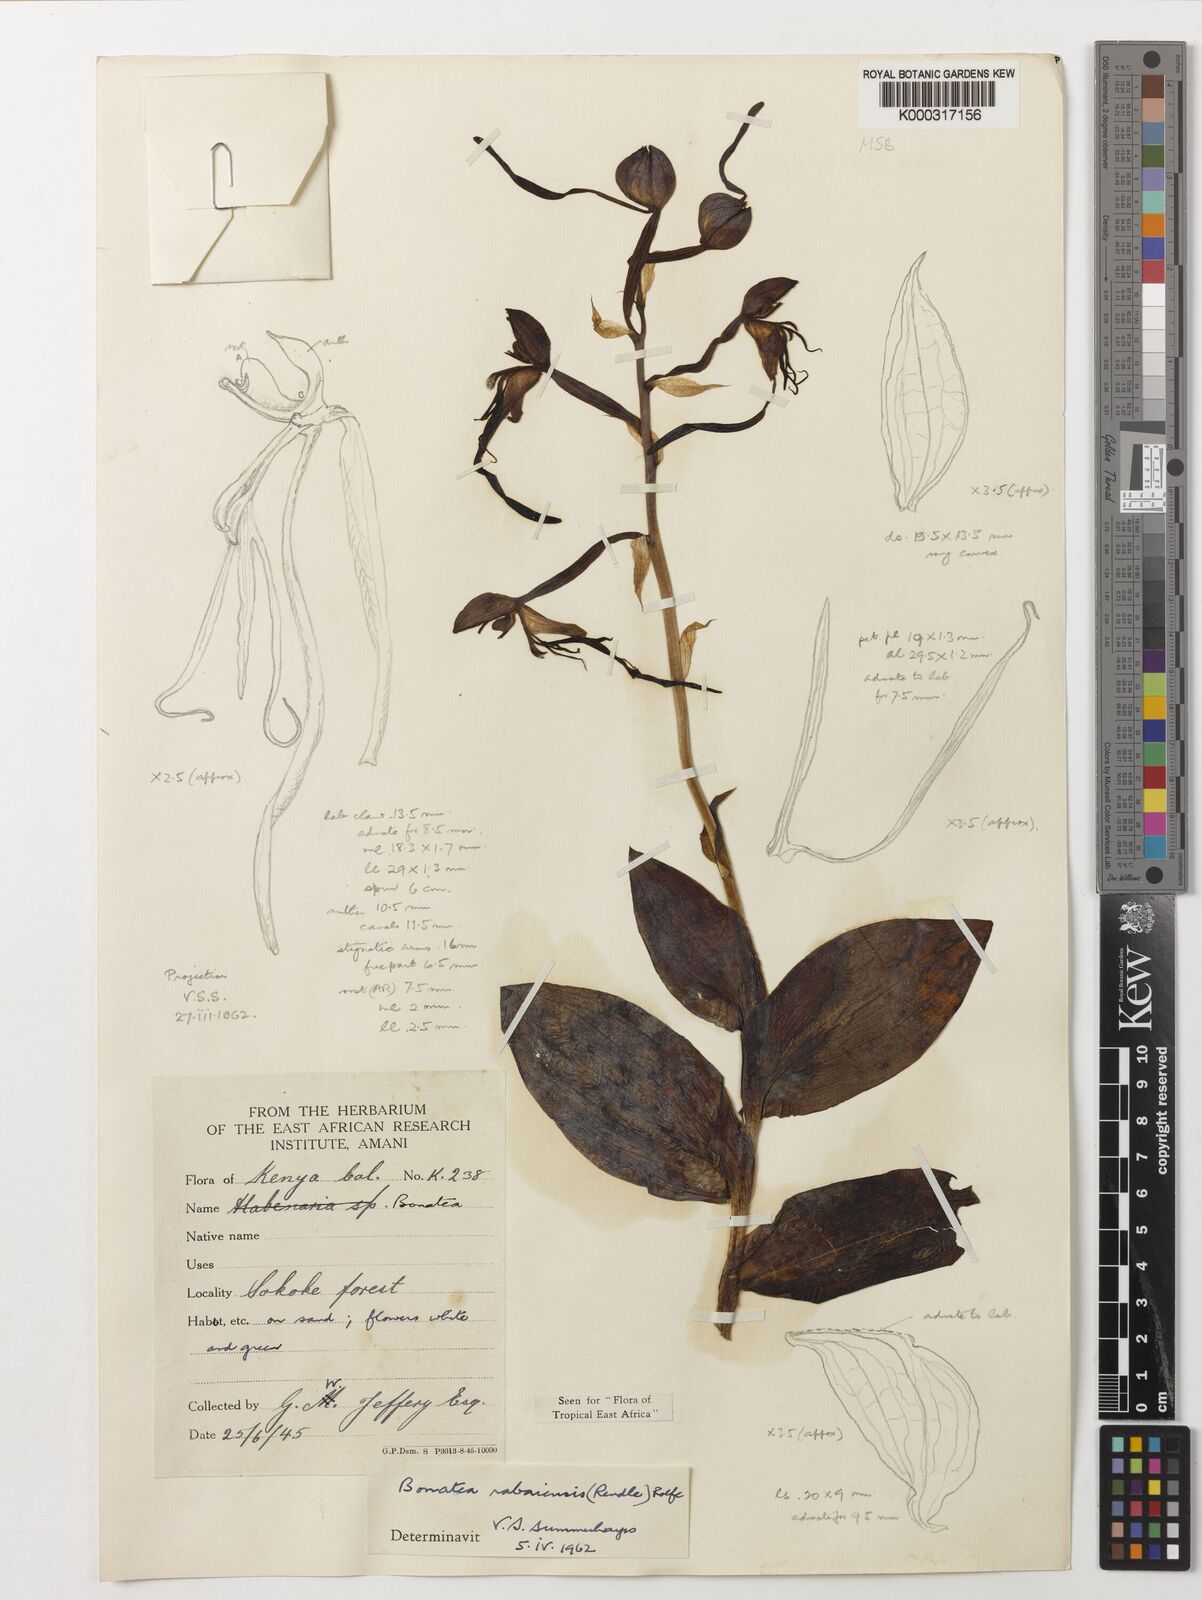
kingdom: Plantae
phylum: Tracheophyta
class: Liliopsida
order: Asparagales
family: Orchidaceae
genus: Bonatea
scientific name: Bonatea rabaiensis
